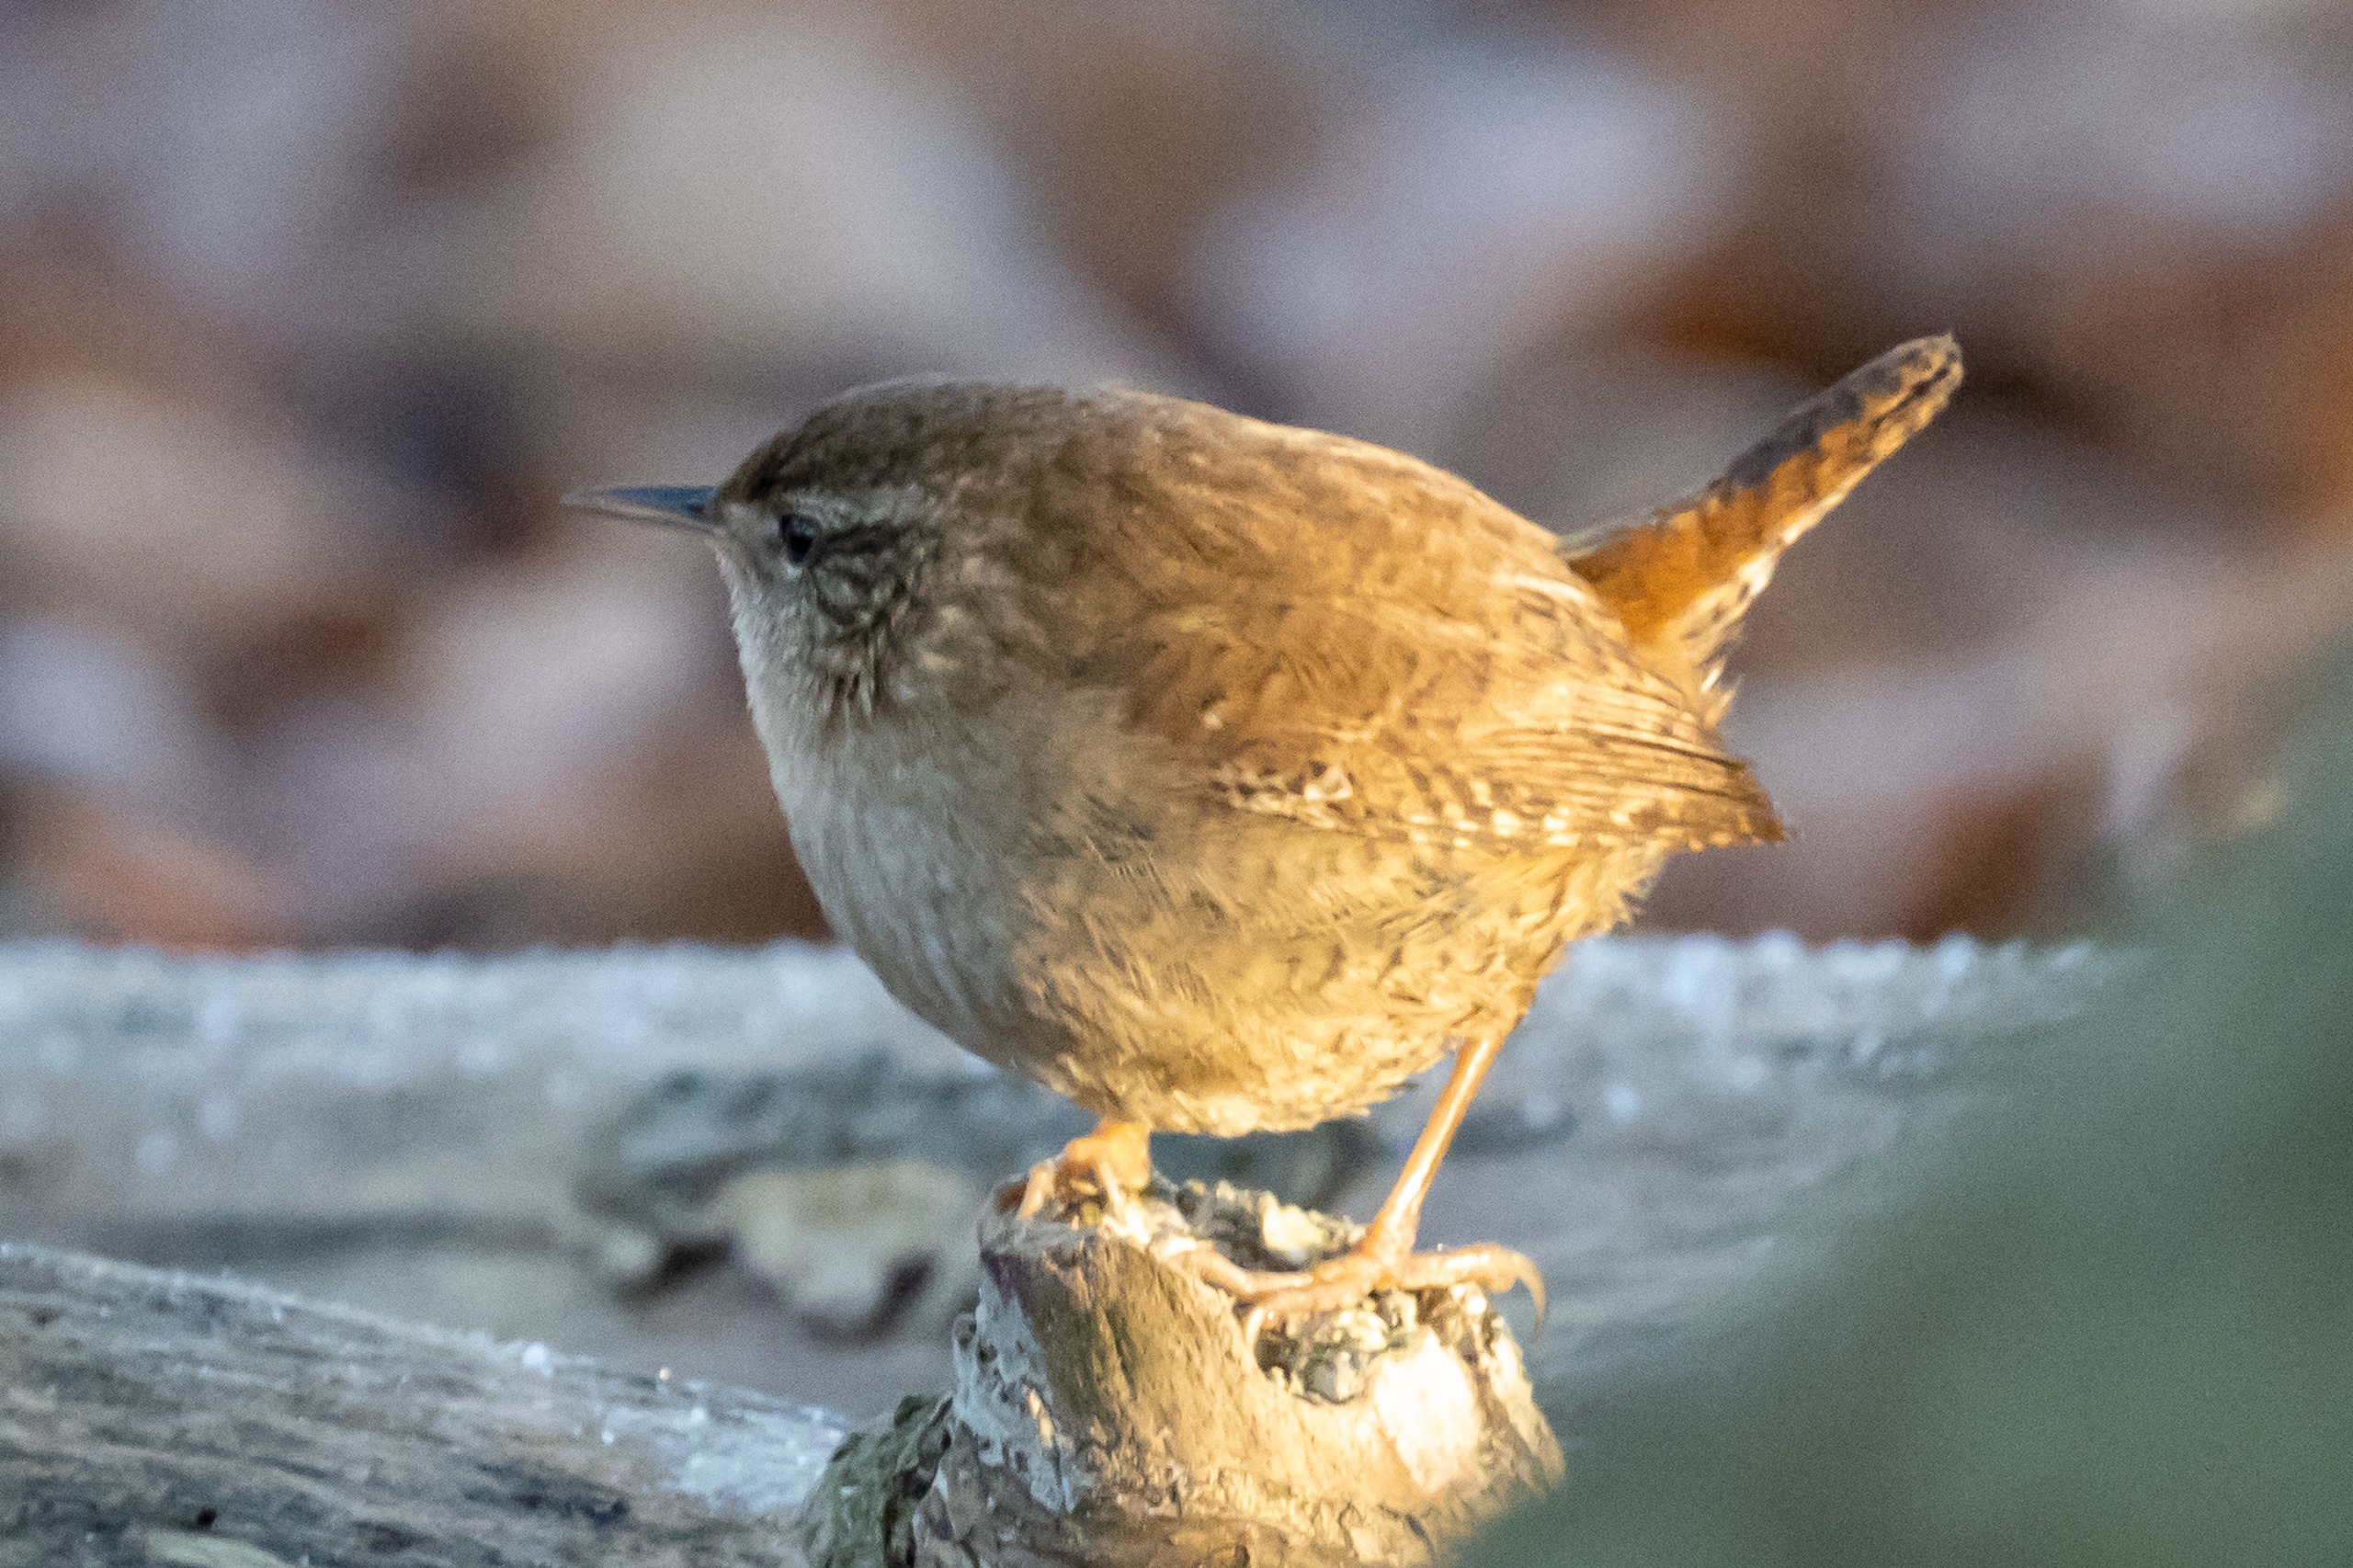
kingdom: Animalia
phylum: Chordata
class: Aves
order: Passeriformes
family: Troglodytidae
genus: Troglodytes
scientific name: Troglodytes troglodytes
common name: Gærdesmutte
